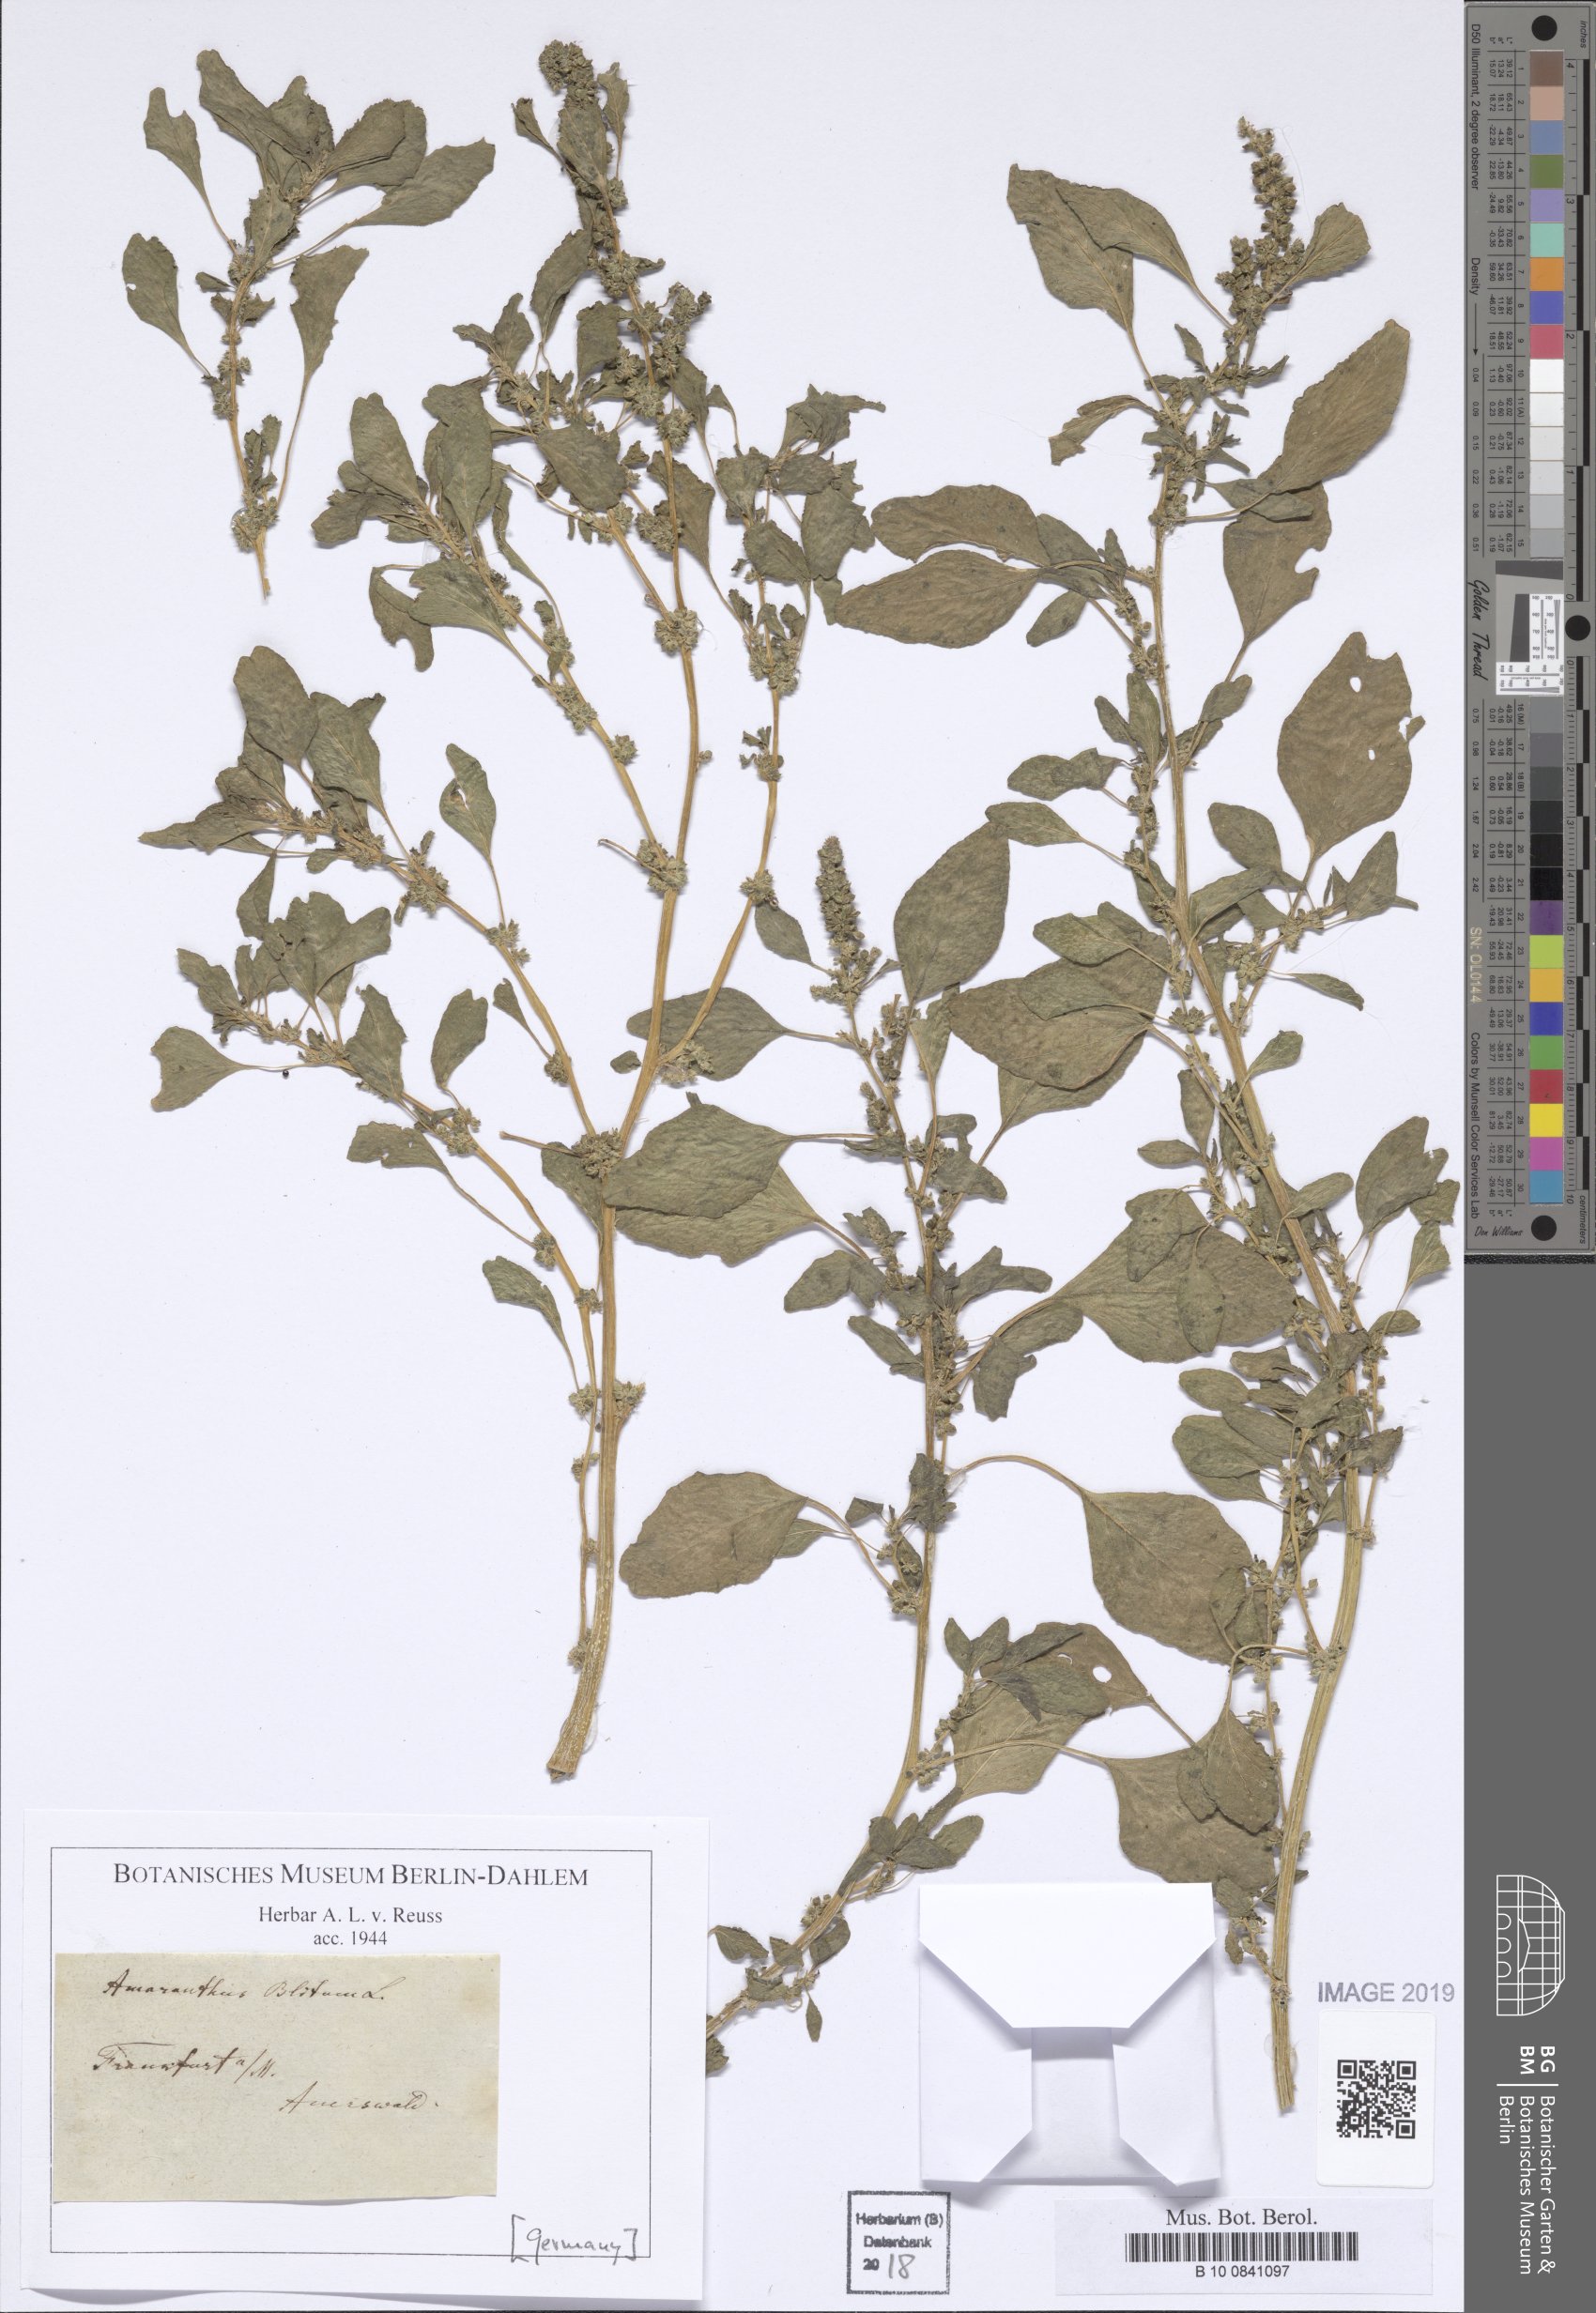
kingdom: Plantae
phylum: Tracheophyta
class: Magnoliopsida
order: Caryophyllales
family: Amaranthaceae
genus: Amaranthus
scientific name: Amaranthus blitum
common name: Purple amaranth
